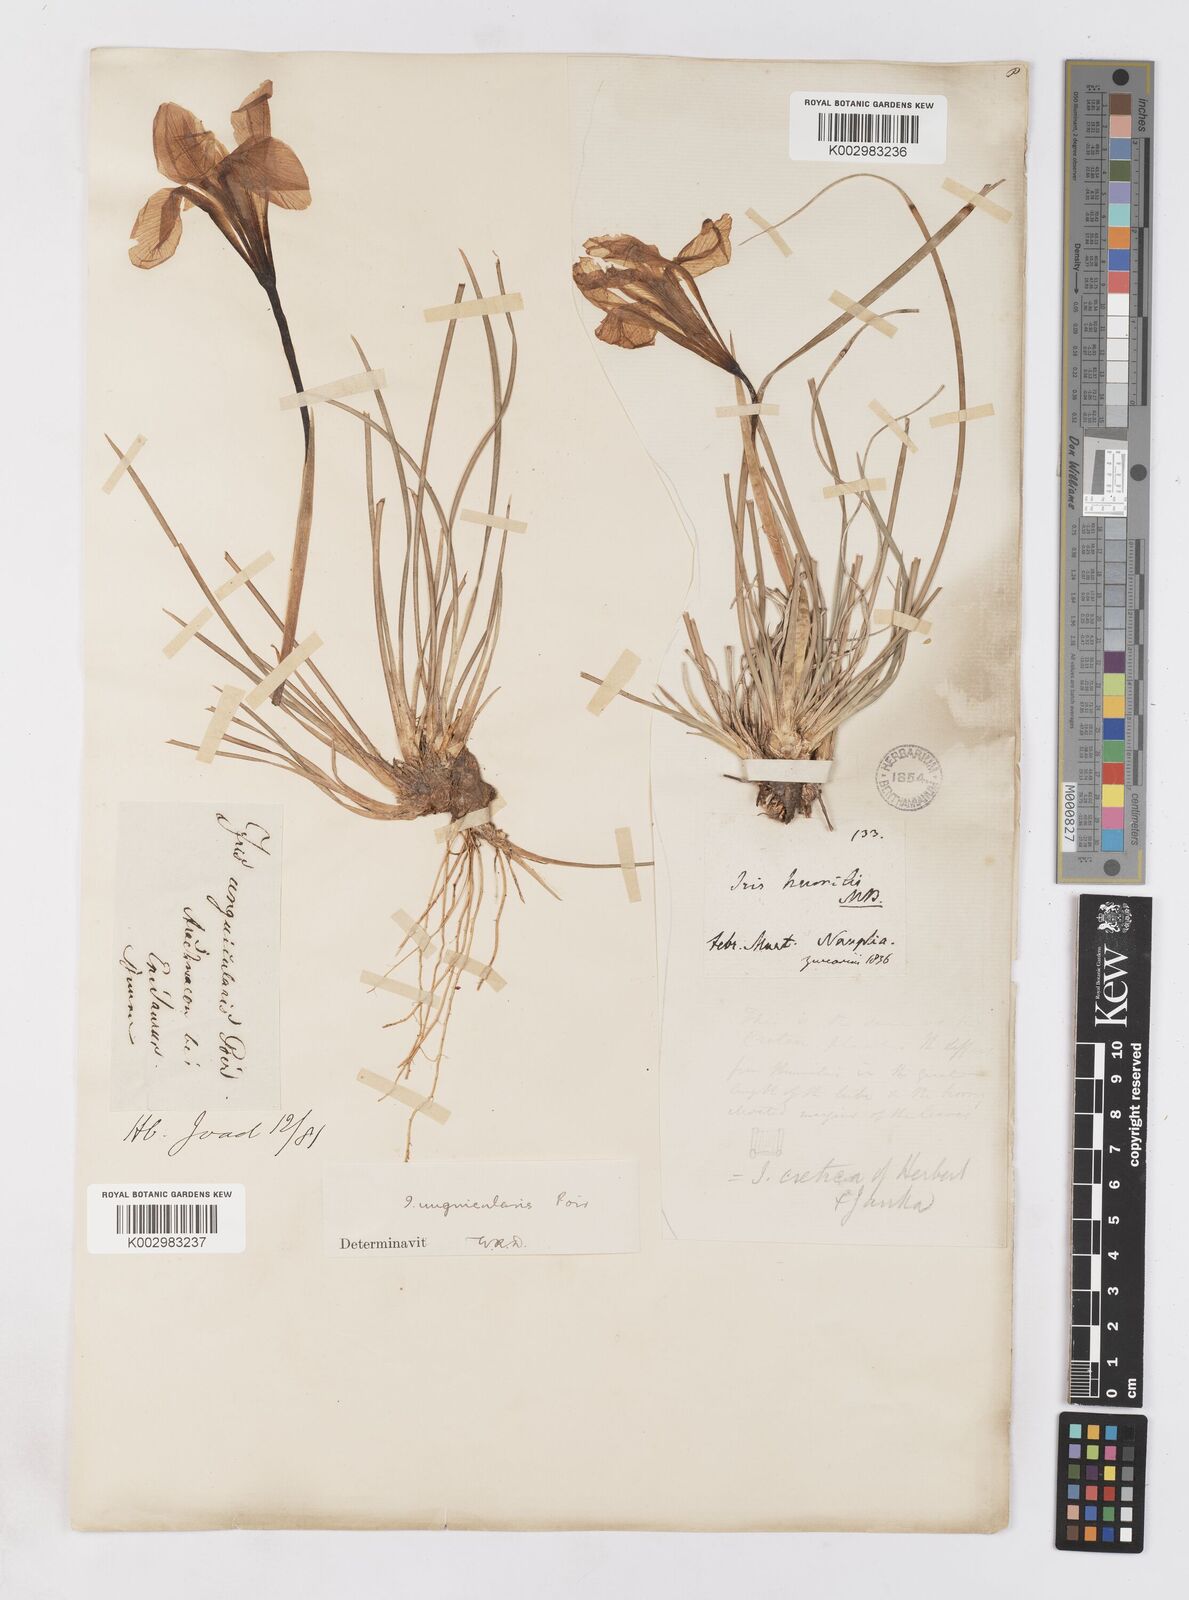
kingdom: Plantae
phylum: Tracheophyta
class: Liliopsida
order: Asparagales
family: Iridaceae
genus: Iris
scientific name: Iris unguicularis
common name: Algerian iris
